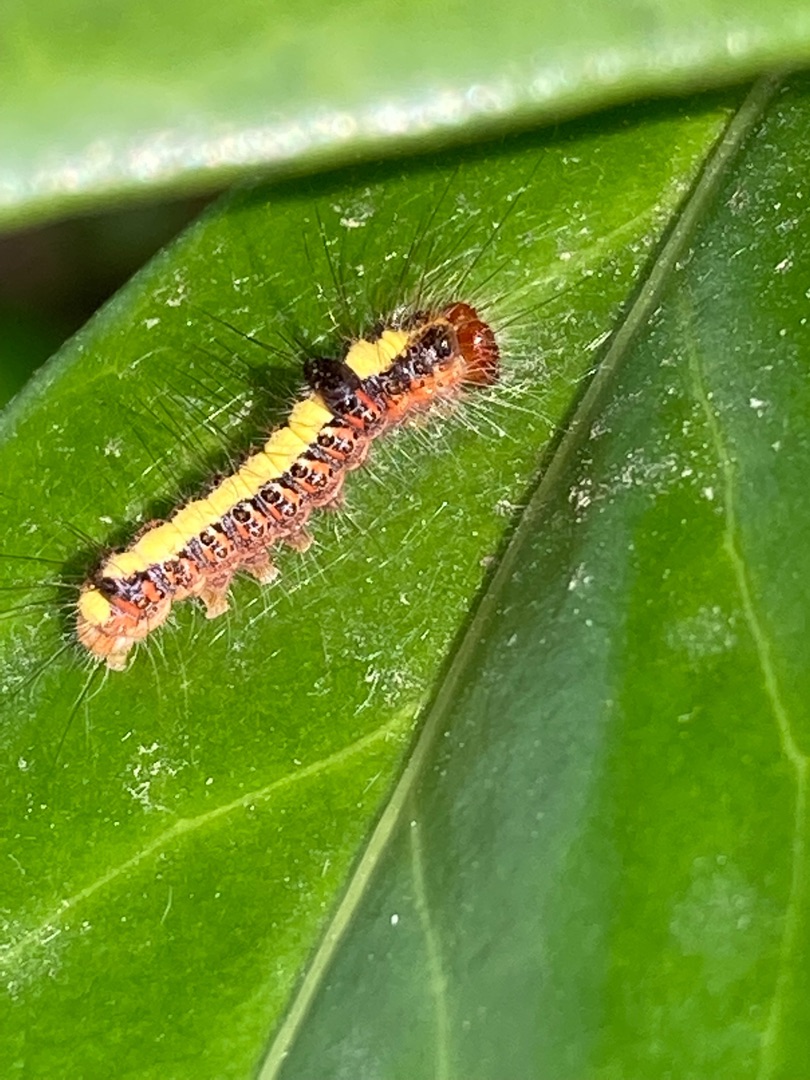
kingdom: Animalia
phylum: Arthropoda
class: Insecta
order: Lepidoptera
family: Noctuidae
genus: Acronicta
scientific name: Acronicta psi
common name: Psi-ugle
